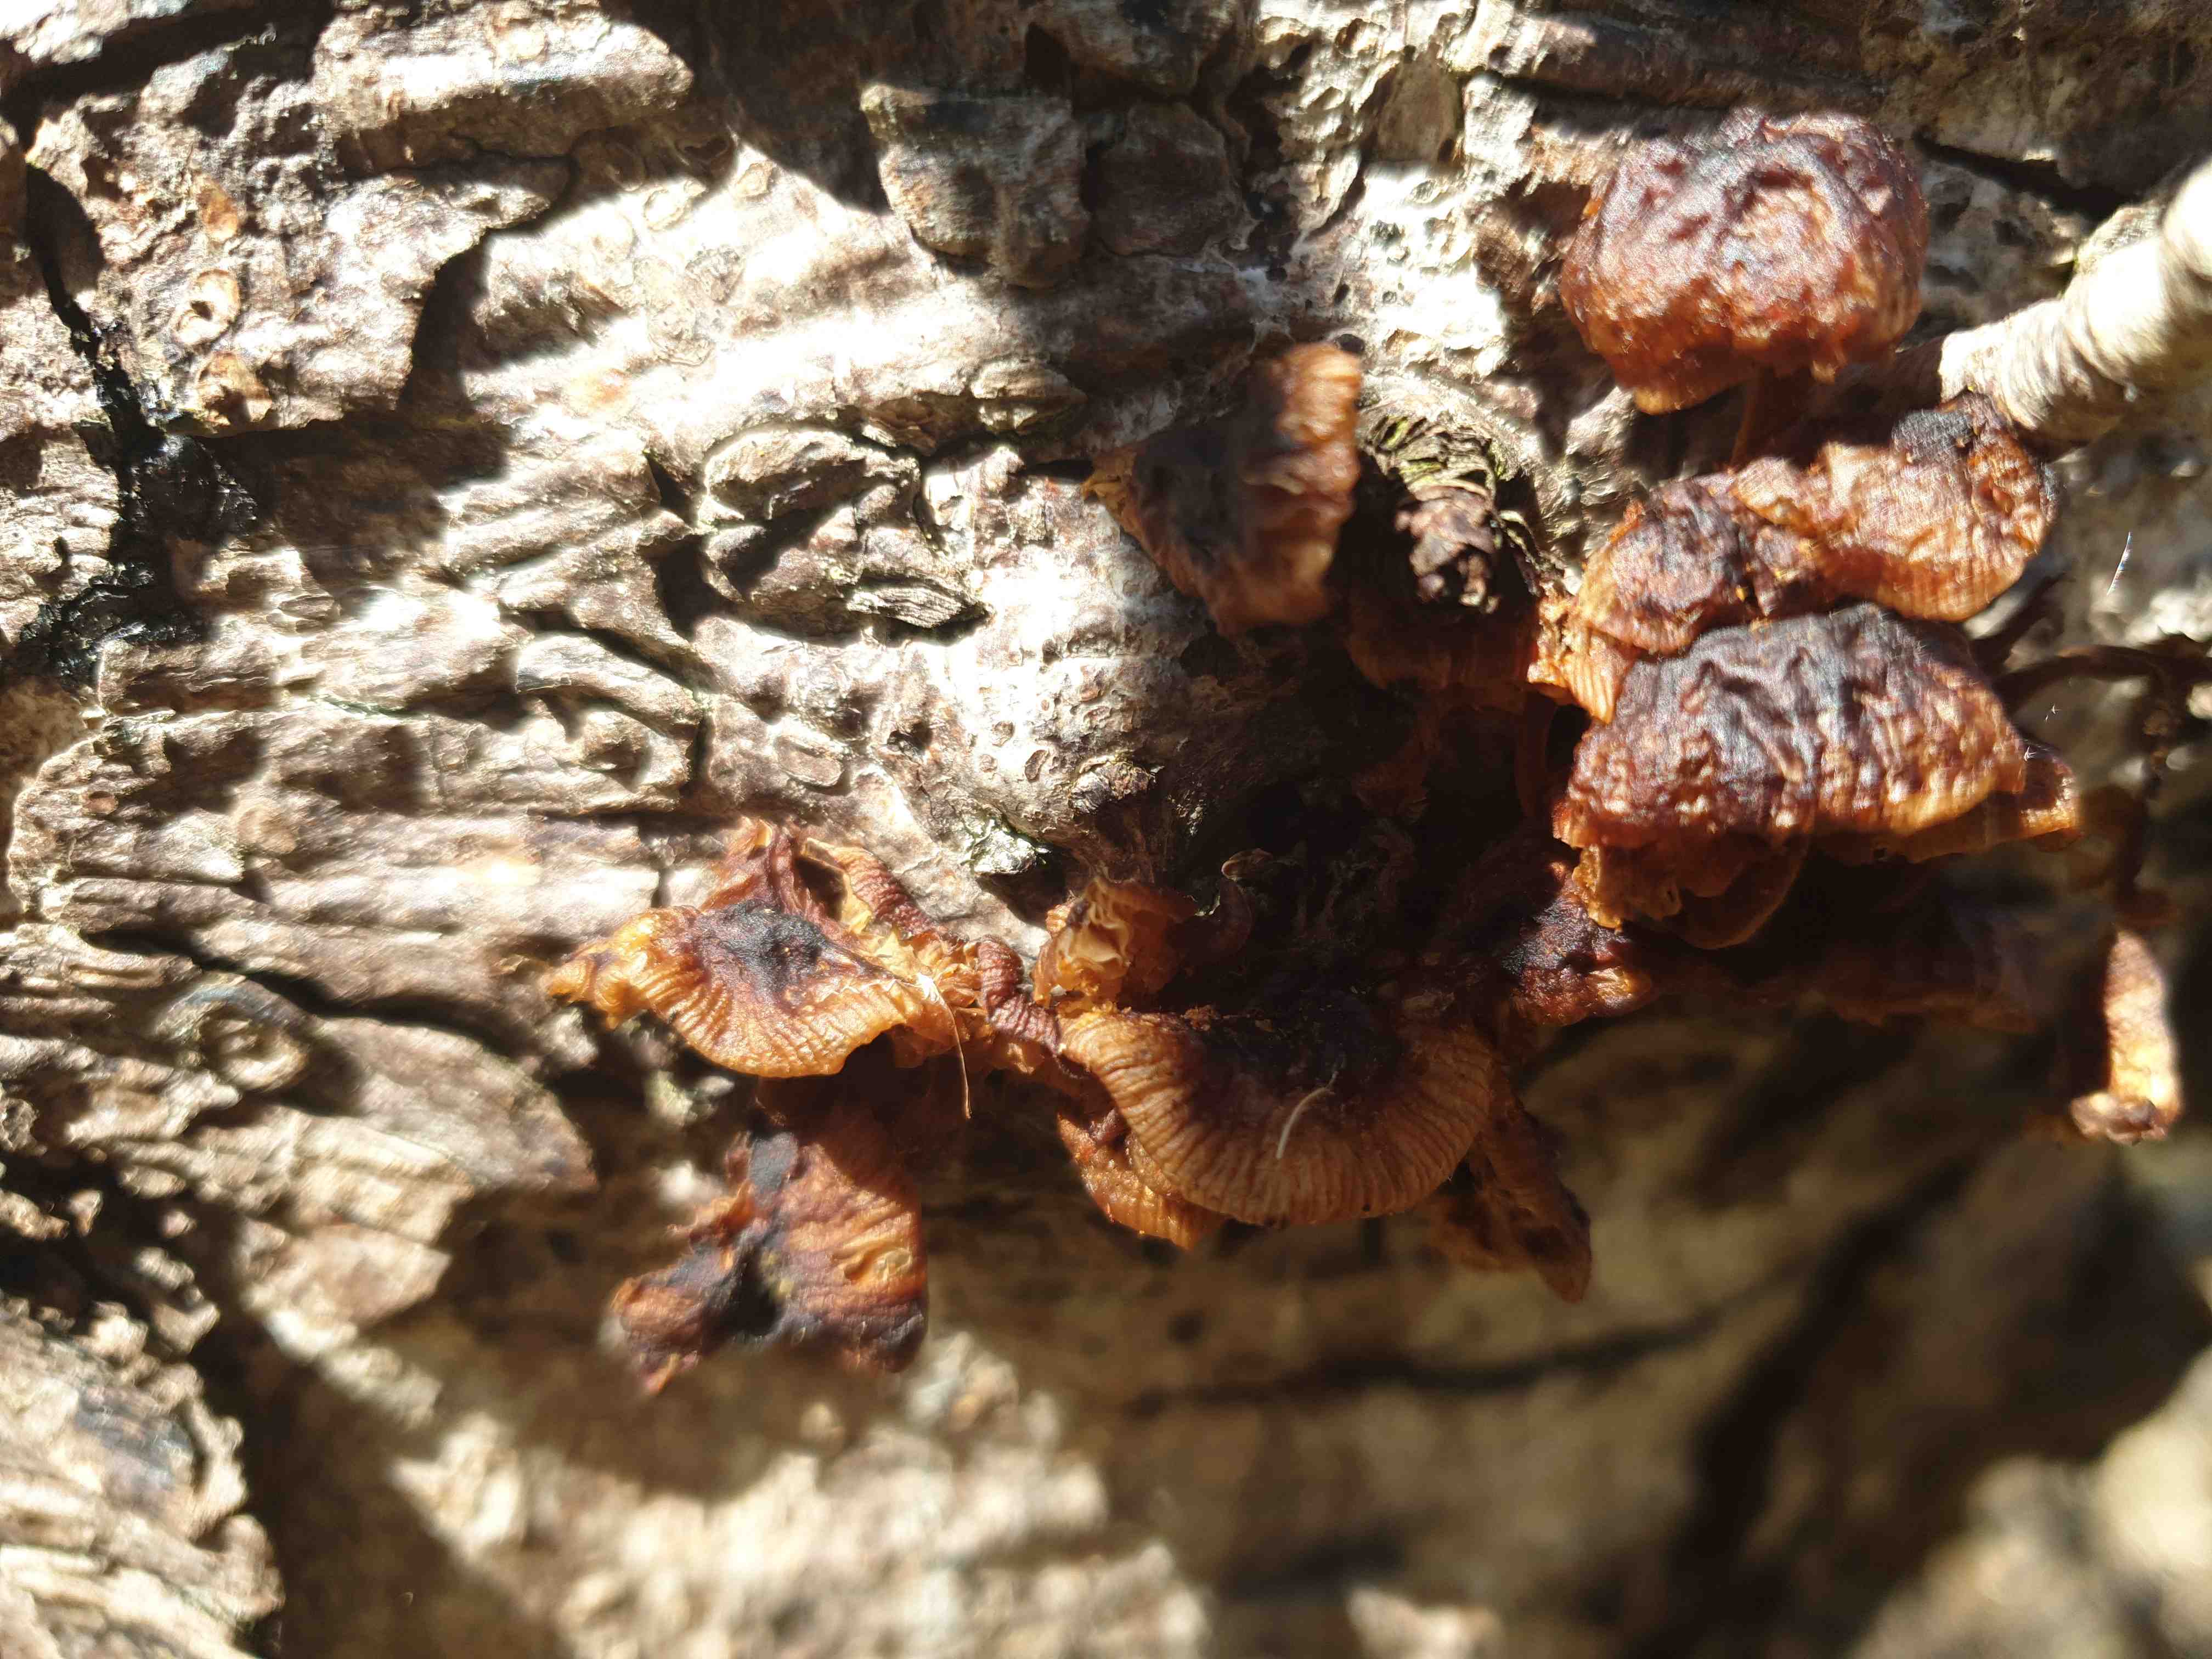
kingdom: Fungi
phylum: Basidiomycota
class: Agaricomycetes
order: Agaricales
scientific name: Agaricales
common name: champignonordenen
